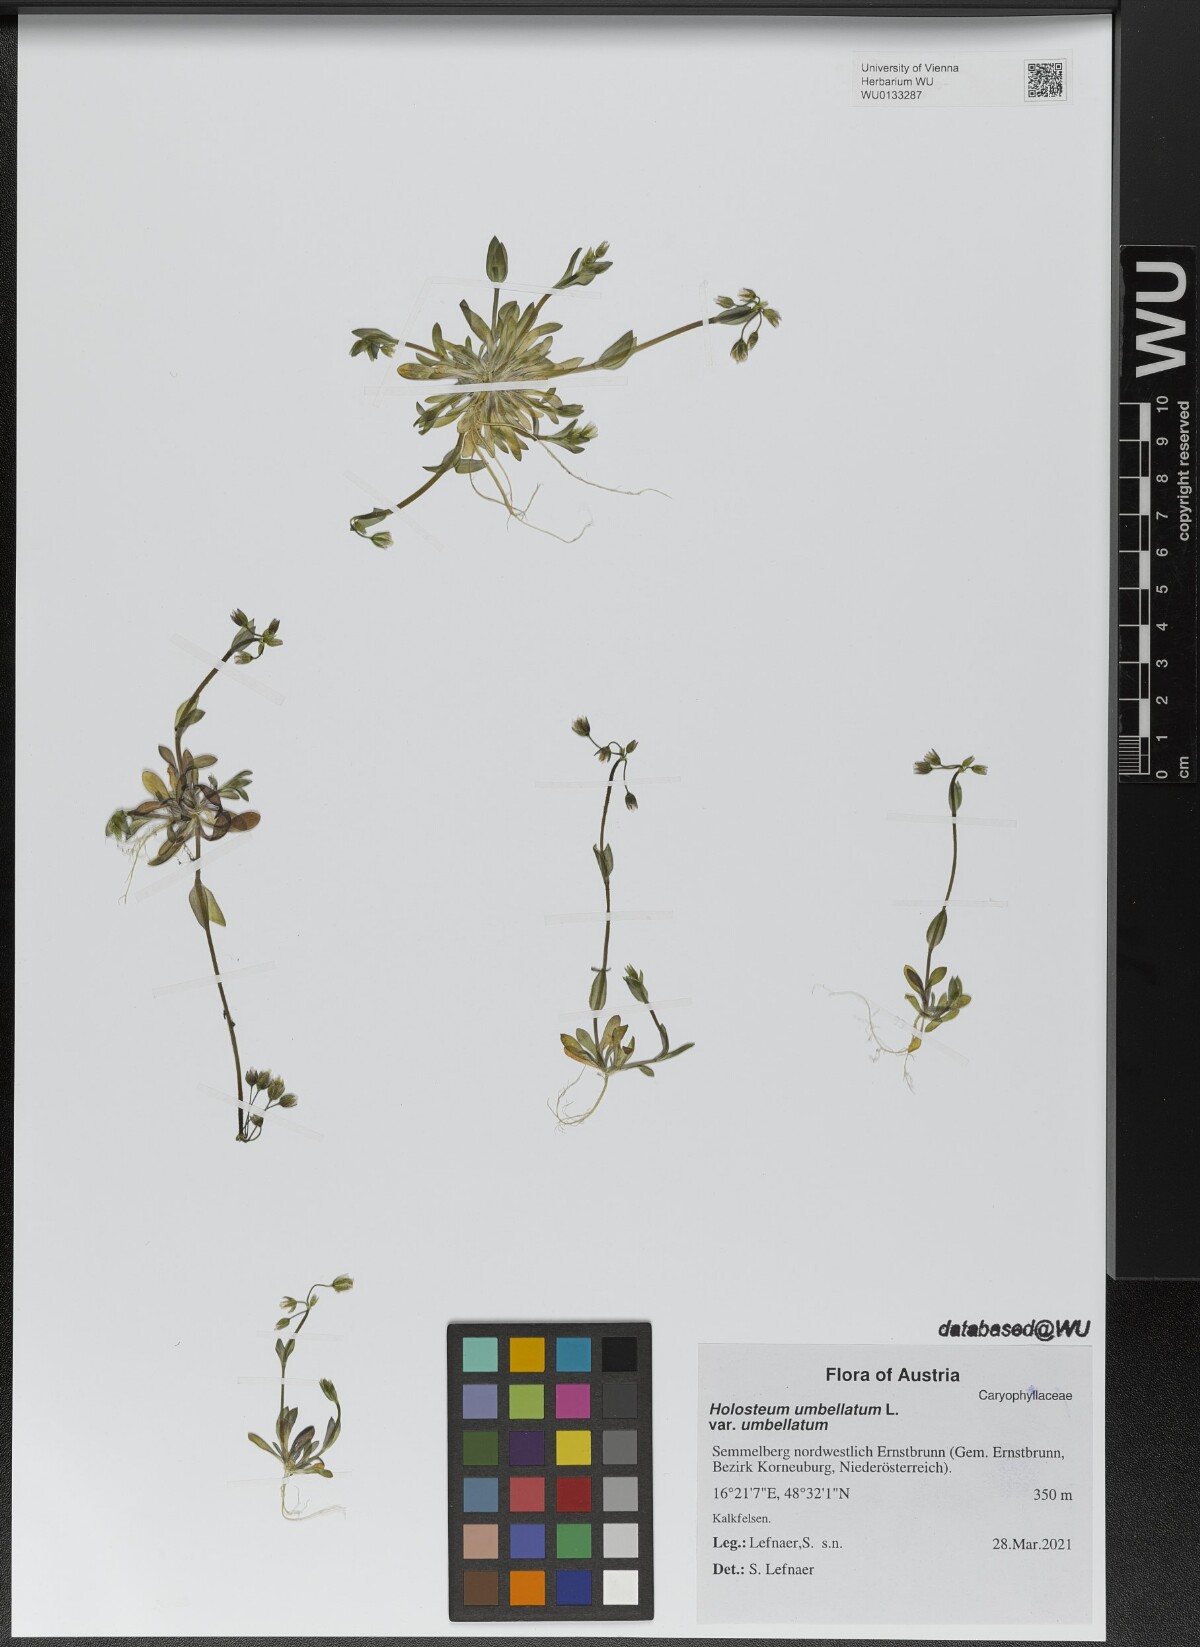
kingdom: Plantae
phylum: Tracheophyta
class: Magnoliopsida
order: Caryophyllales
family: Caryophyllaceae
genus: Holosteum
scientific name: Holosteum umbellatum
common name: Jagged chickweed
